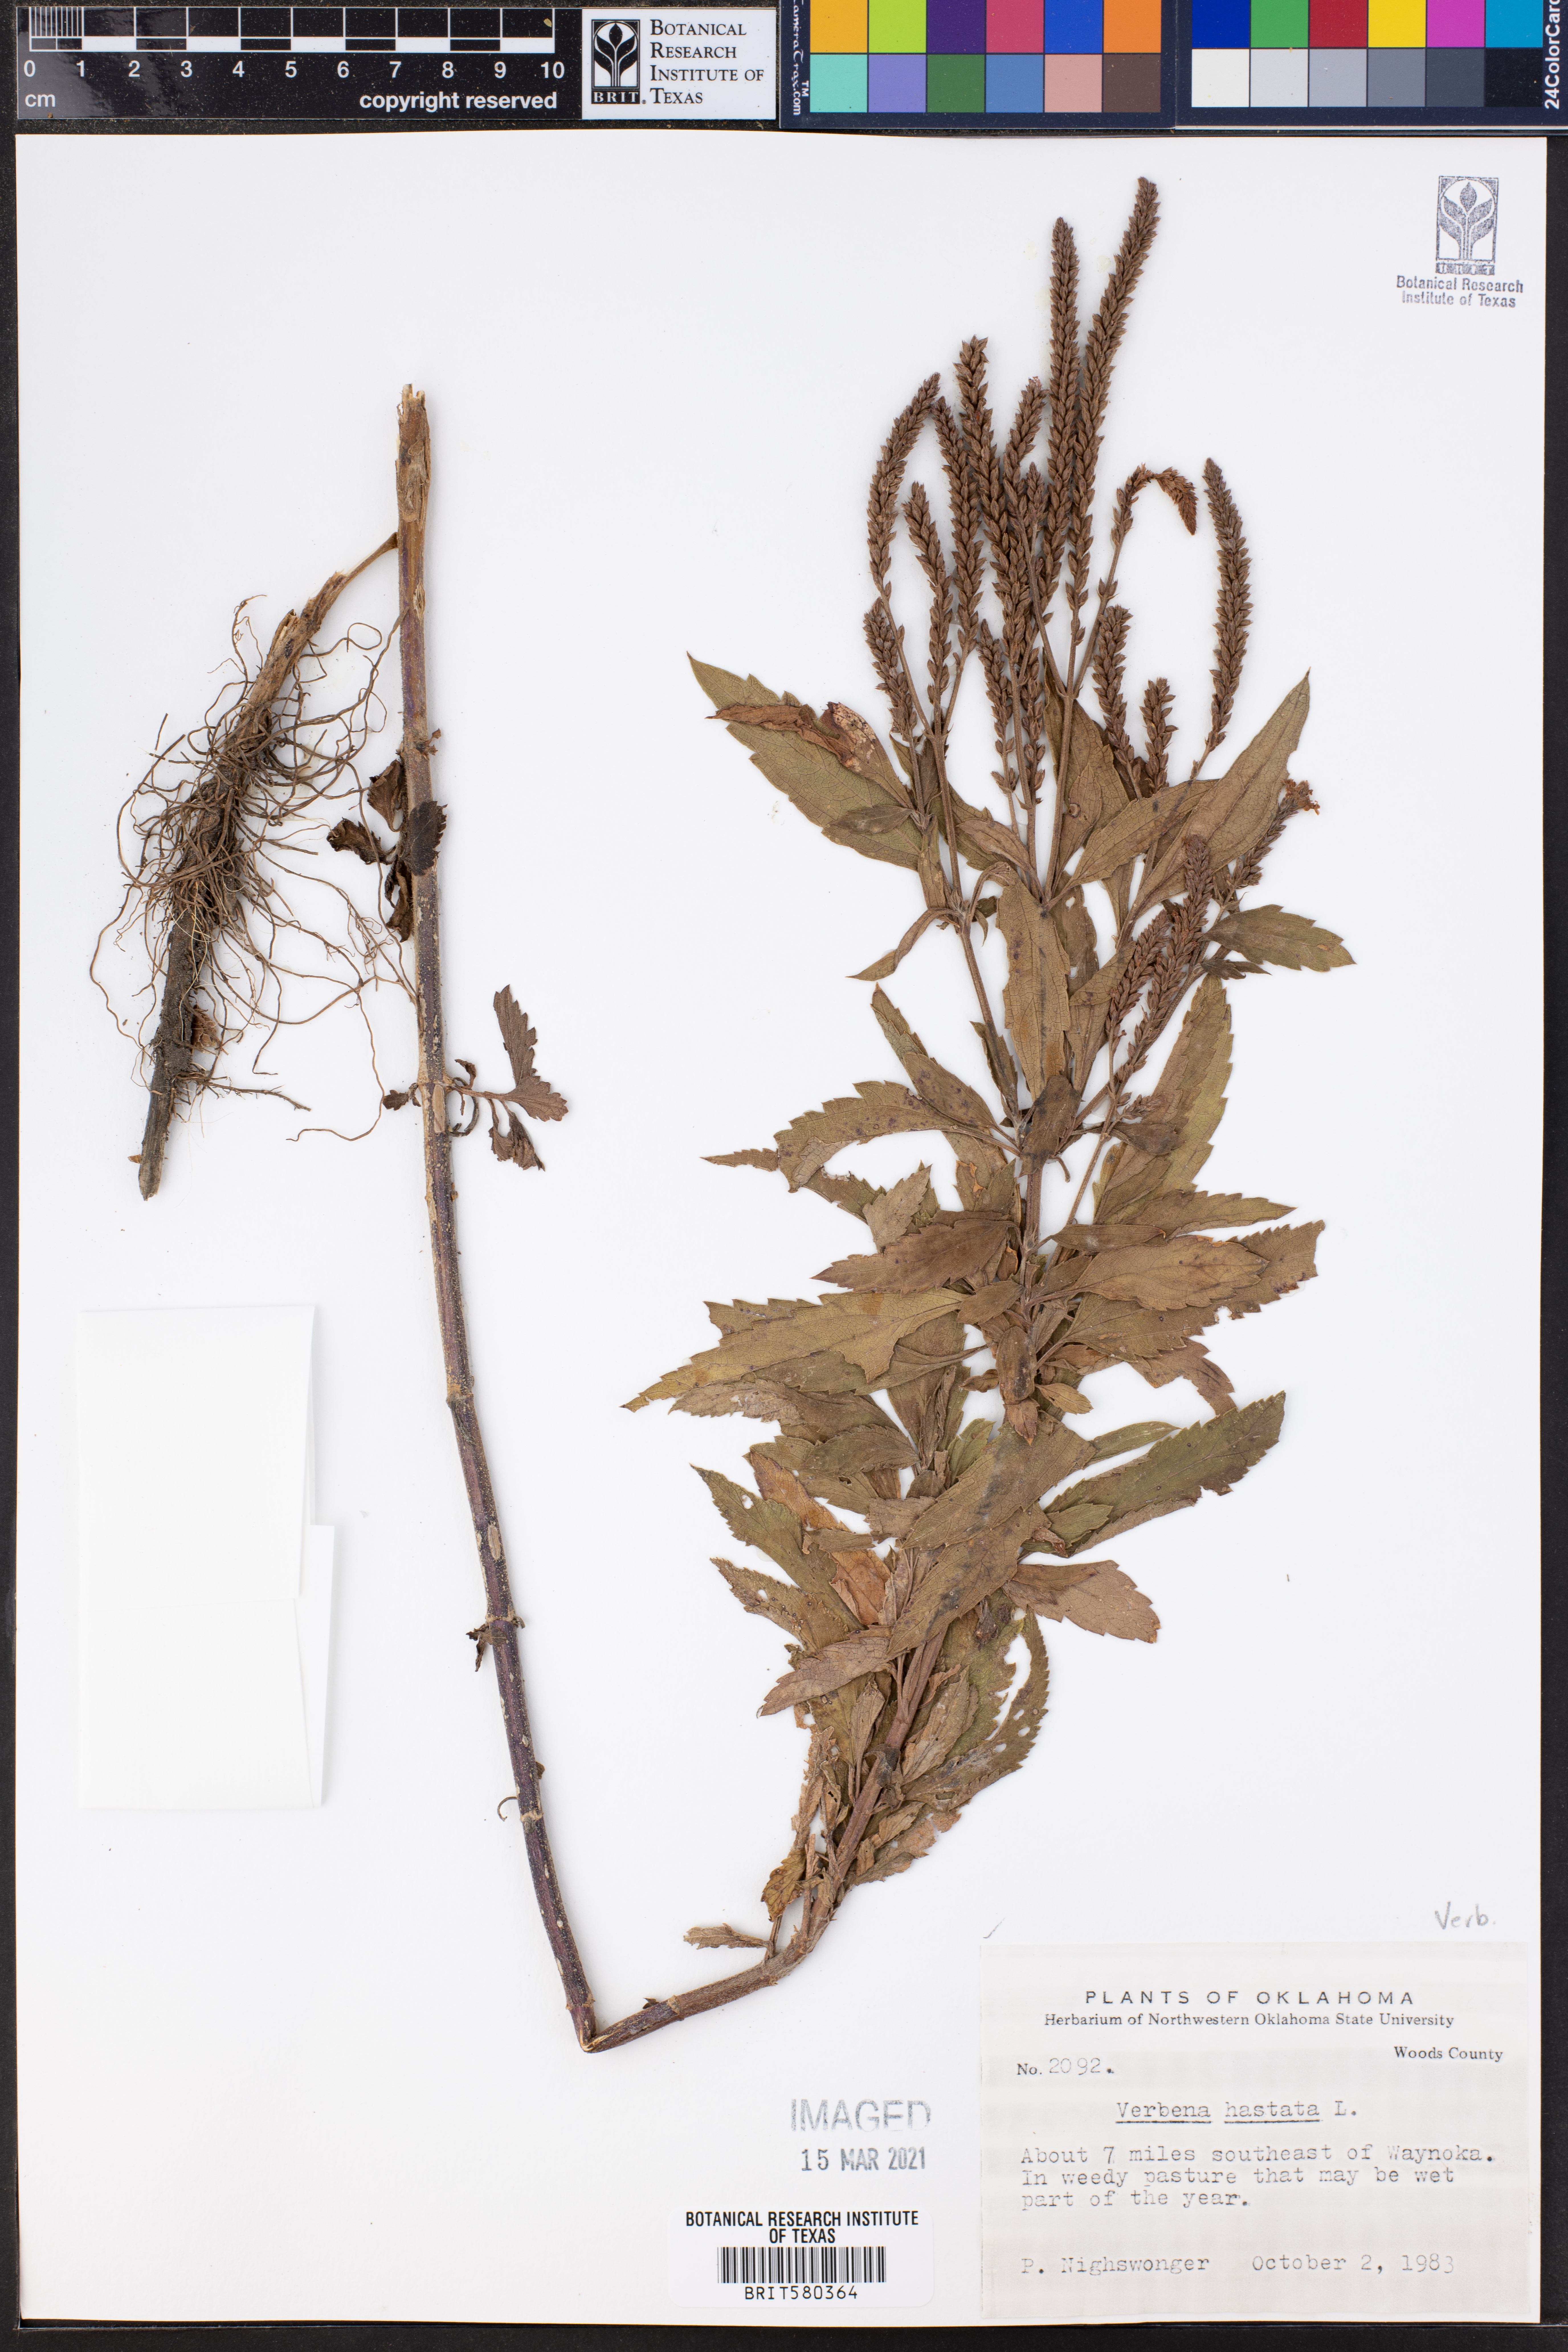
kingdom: Plantae
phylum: Tracheophyta
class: Magnoliopsida
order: Lamiales
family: Verbenaceae
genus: Verbena
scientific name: Verbena hastata
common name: American blue vervain
